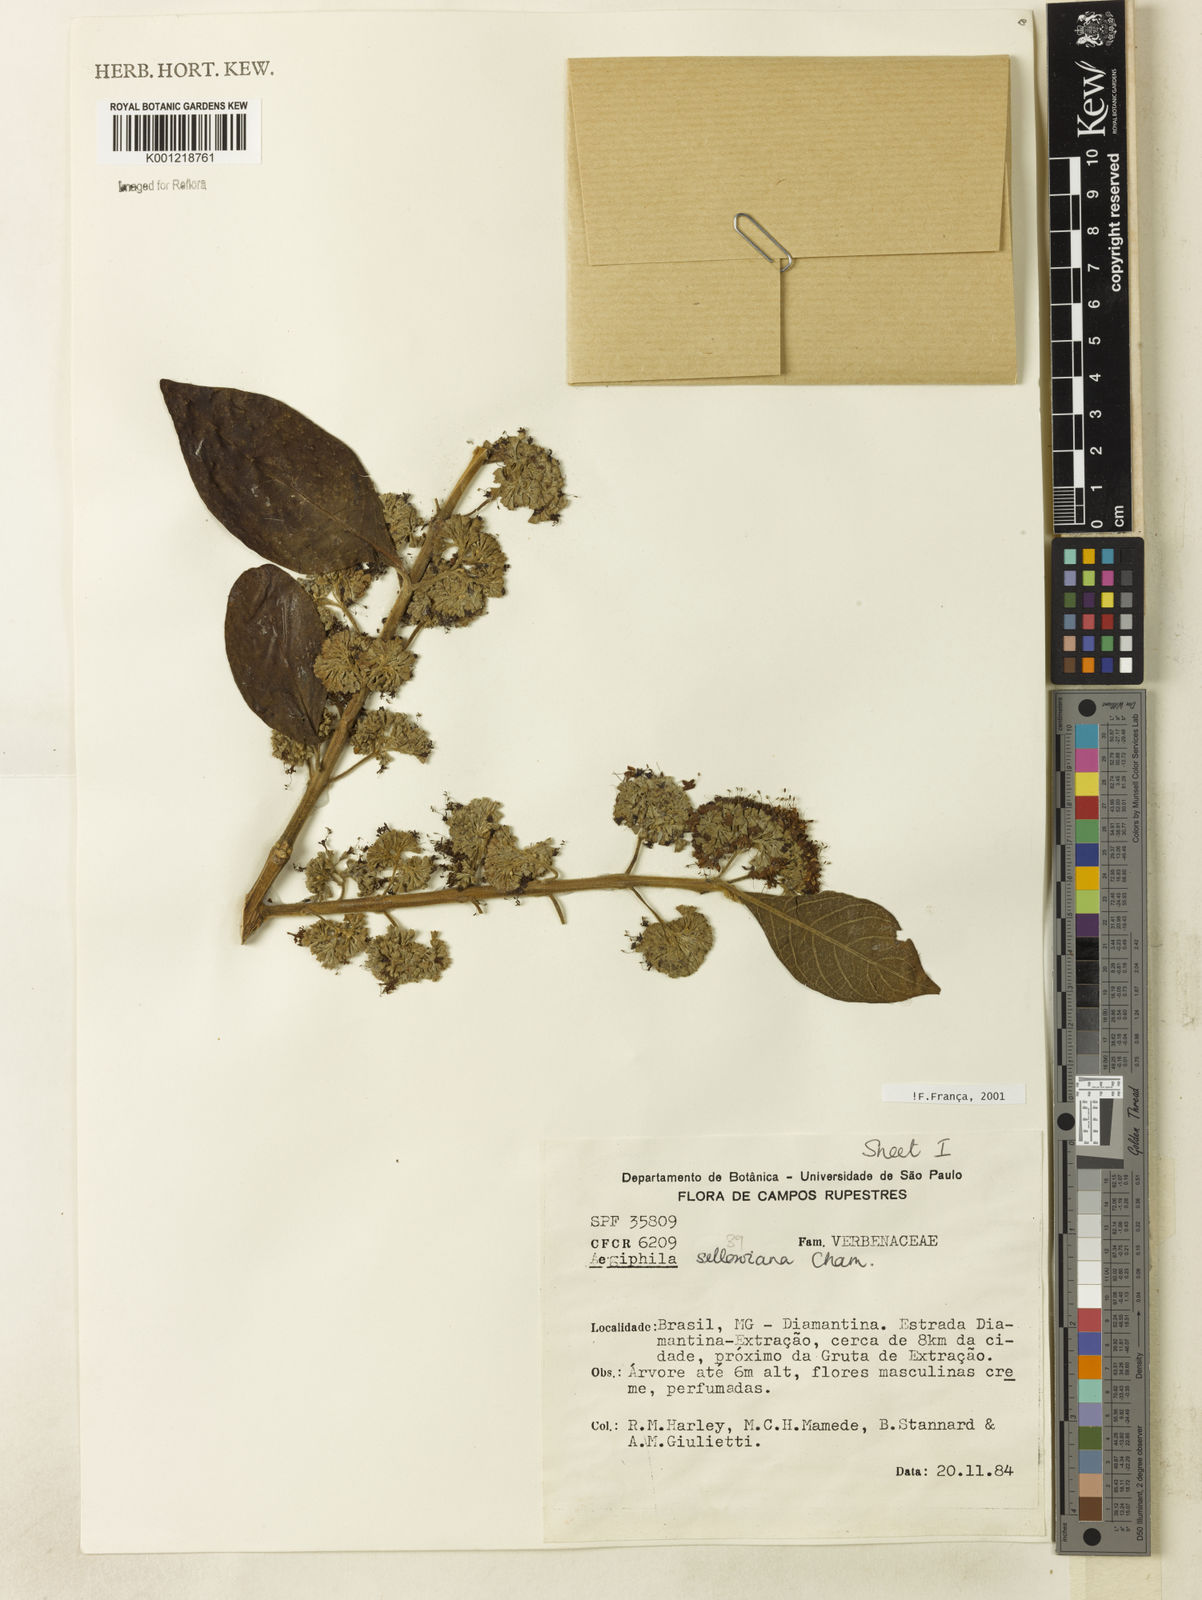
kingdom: Plantae
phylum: Tracheophyta
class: Magnoliopsida
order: Lamiales
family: Lamiaceae
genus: Aegiphila
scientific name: Aegiphila verticillata
